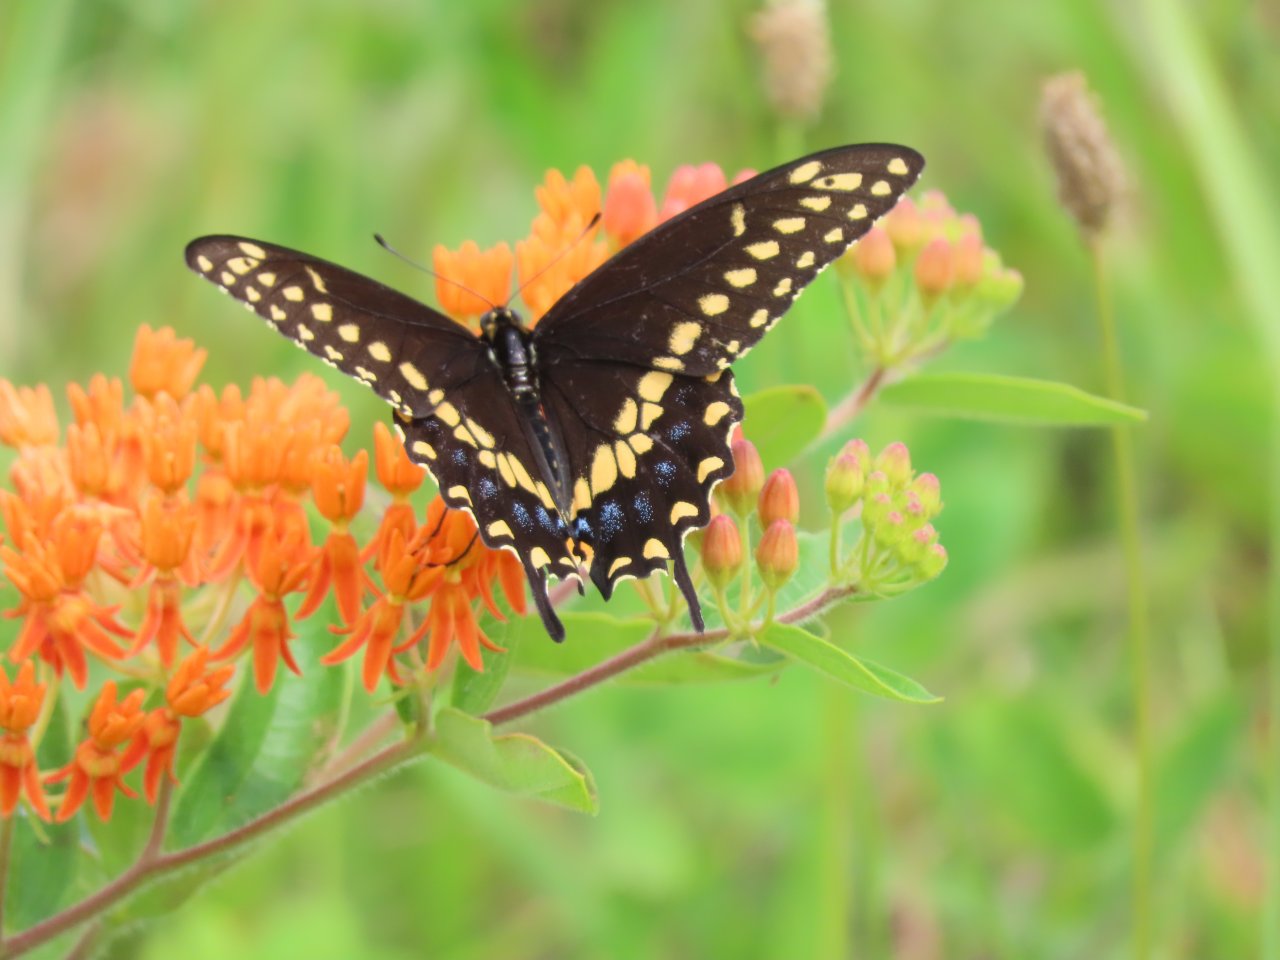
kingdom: Animalia
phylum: Arthropoda
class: Insecta
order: Lepidoptera
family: Papilionidae
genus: Papilio
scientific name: Papilio polyxenes
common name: Black Swallowtail
